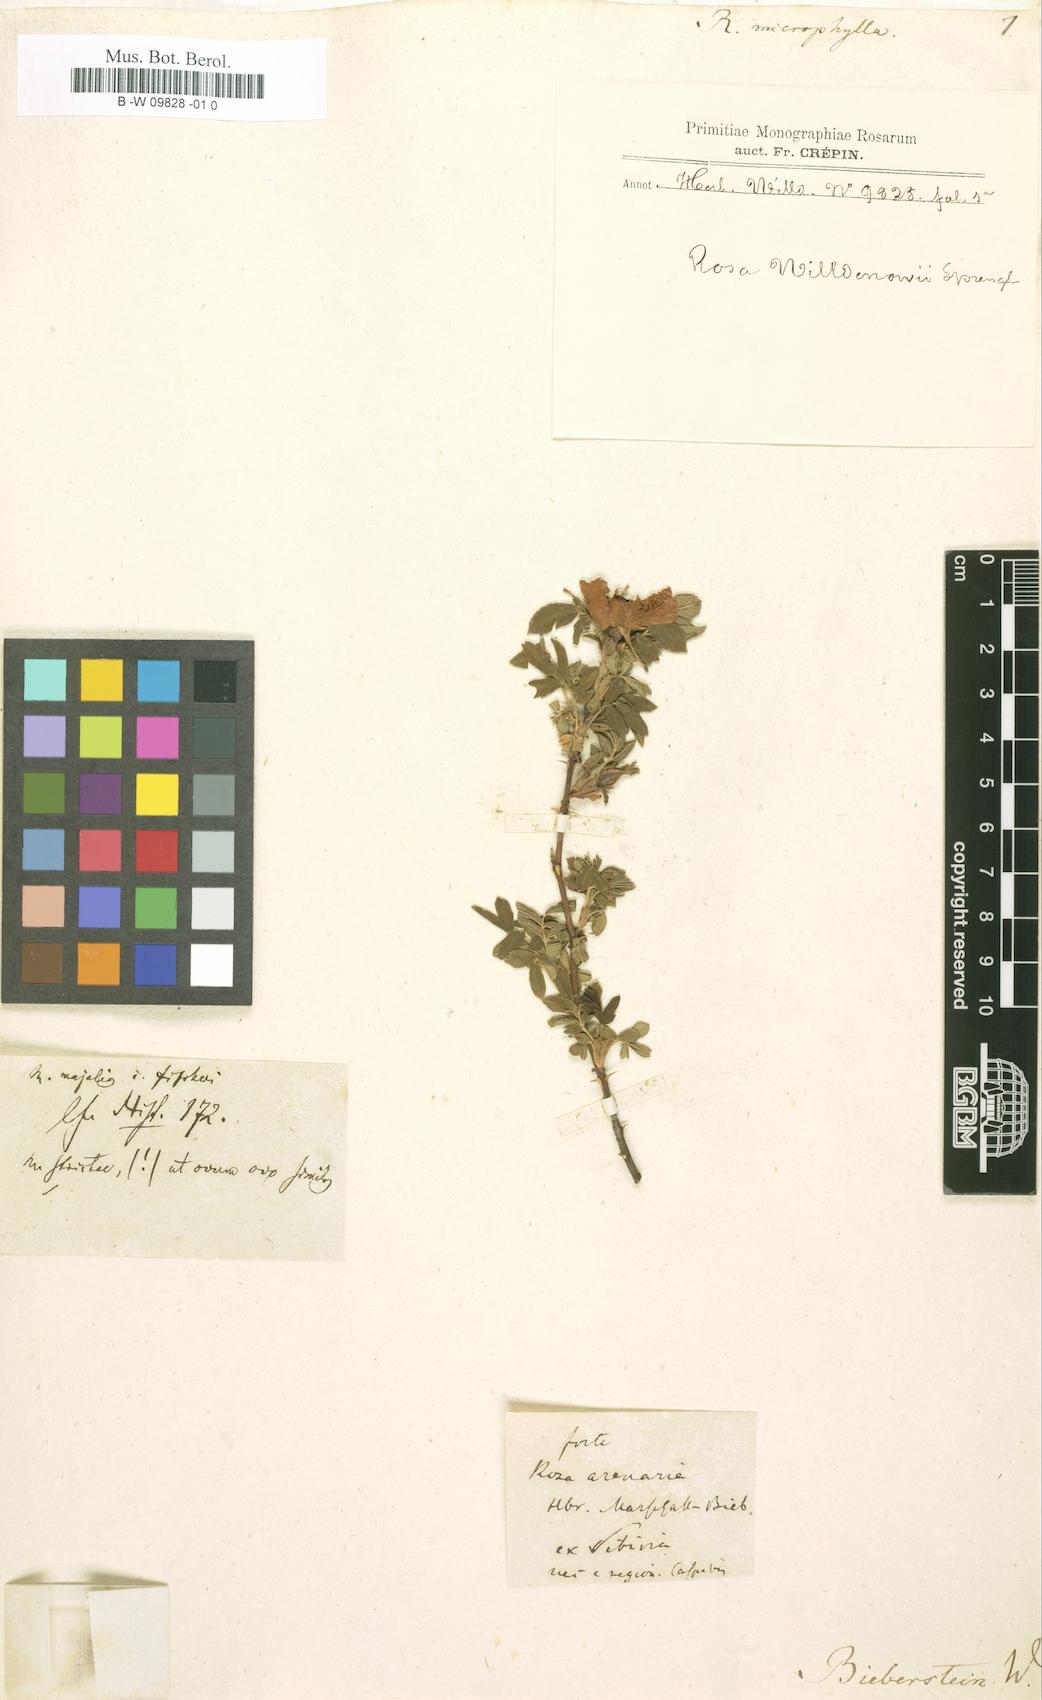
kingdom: Plantae
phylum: Tracheophyta
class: Magnoliopsida
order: Rosales
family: Rosaceae
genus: Rosa
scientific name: Rosa
